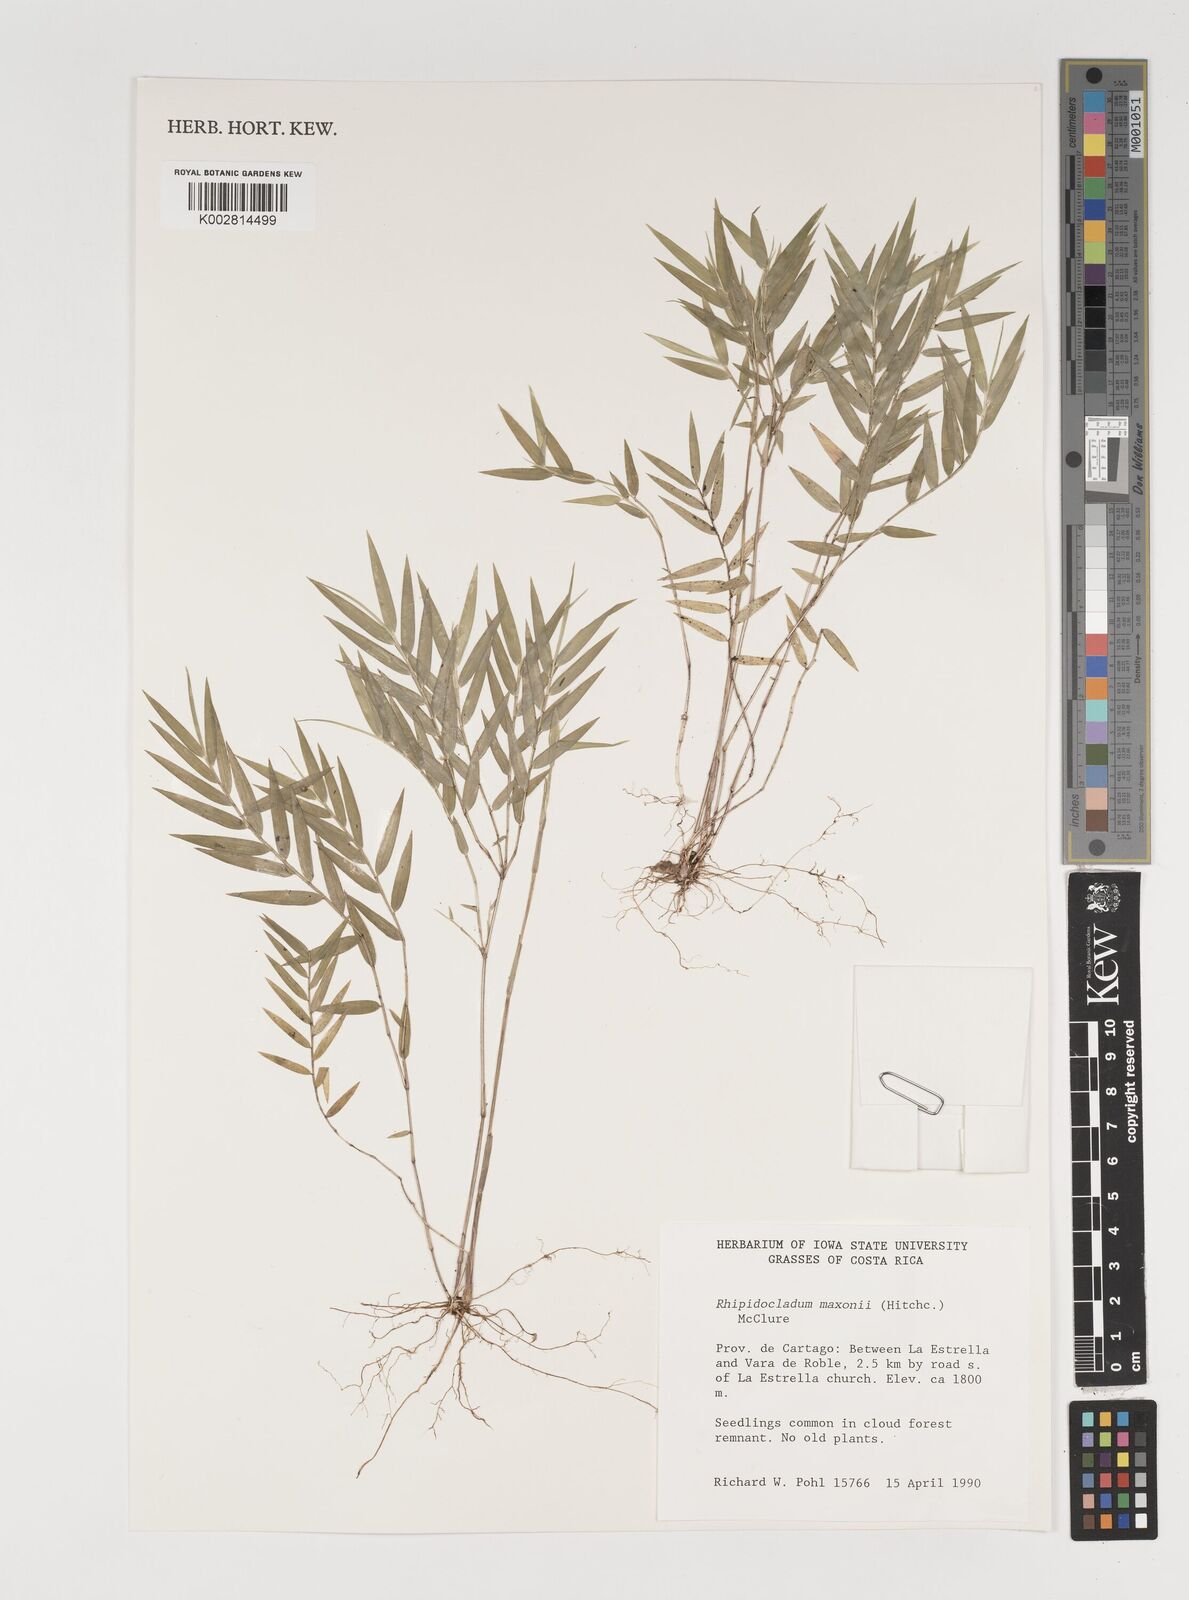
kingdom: Plantae
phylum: Tracheophyta
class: Liliopsida
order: Poales
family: Poaceae
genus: Rhipidocladum
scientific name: Rhipidocladum maxonii
